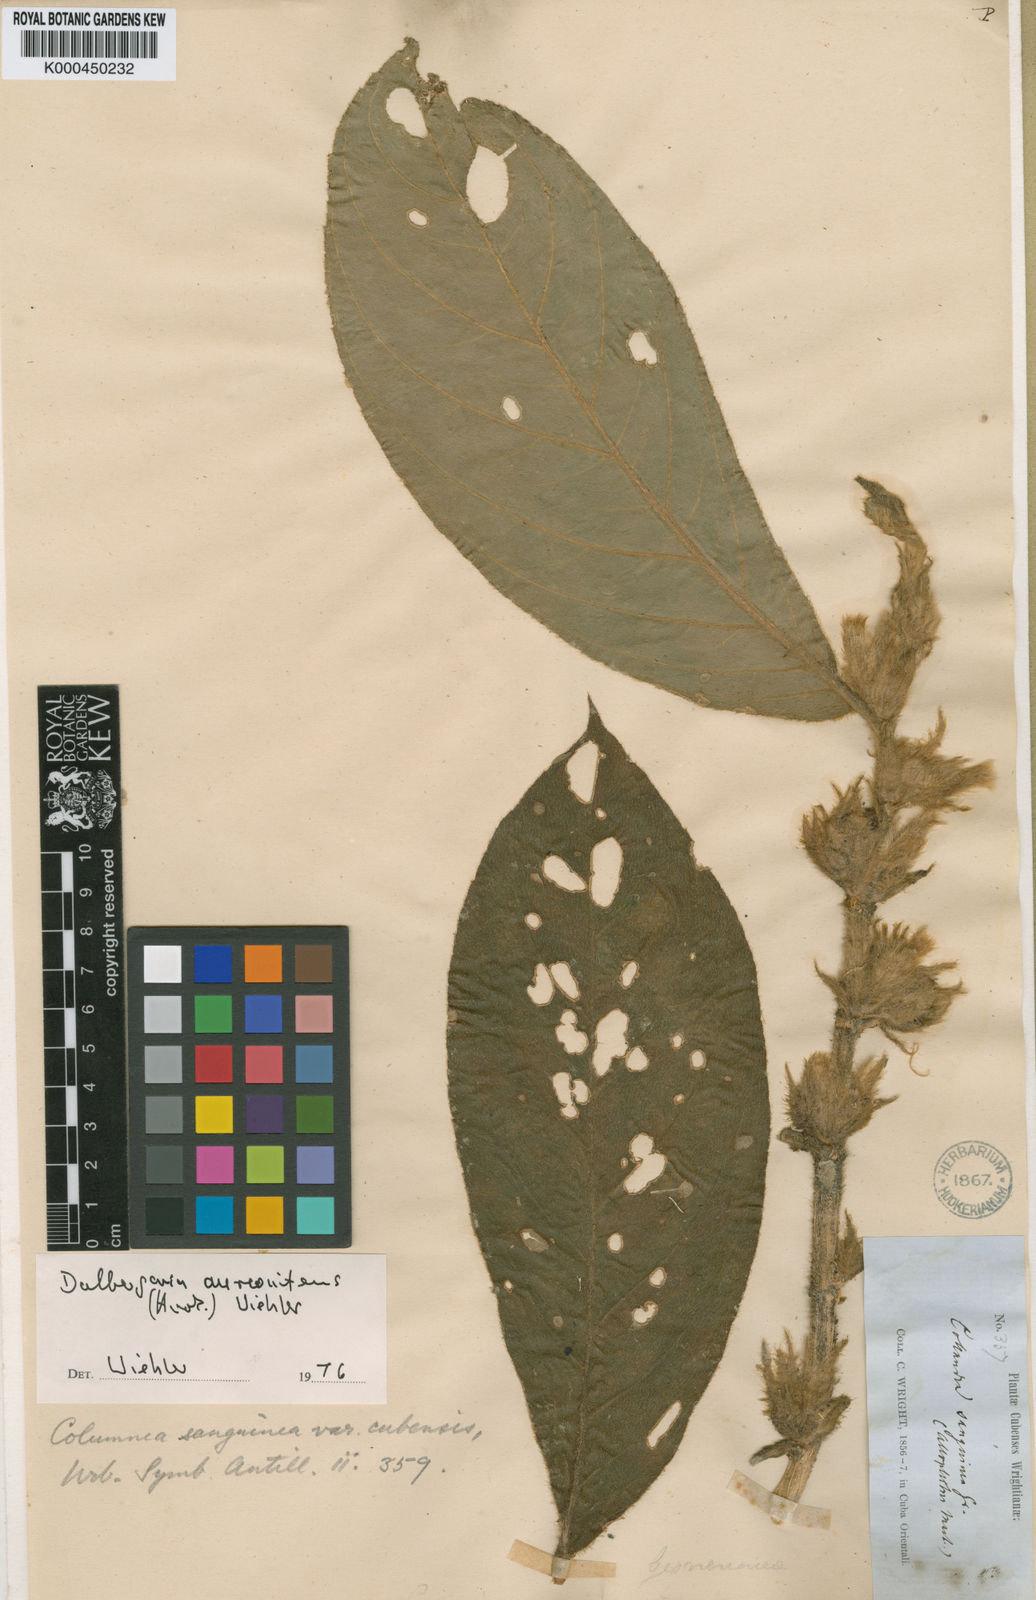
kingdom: Plantae
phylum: Tracheophyta
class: Magnoliopsida
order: Lamiales
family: Gesneriaceae
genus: Columnea
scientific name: Columnea sanguinea
